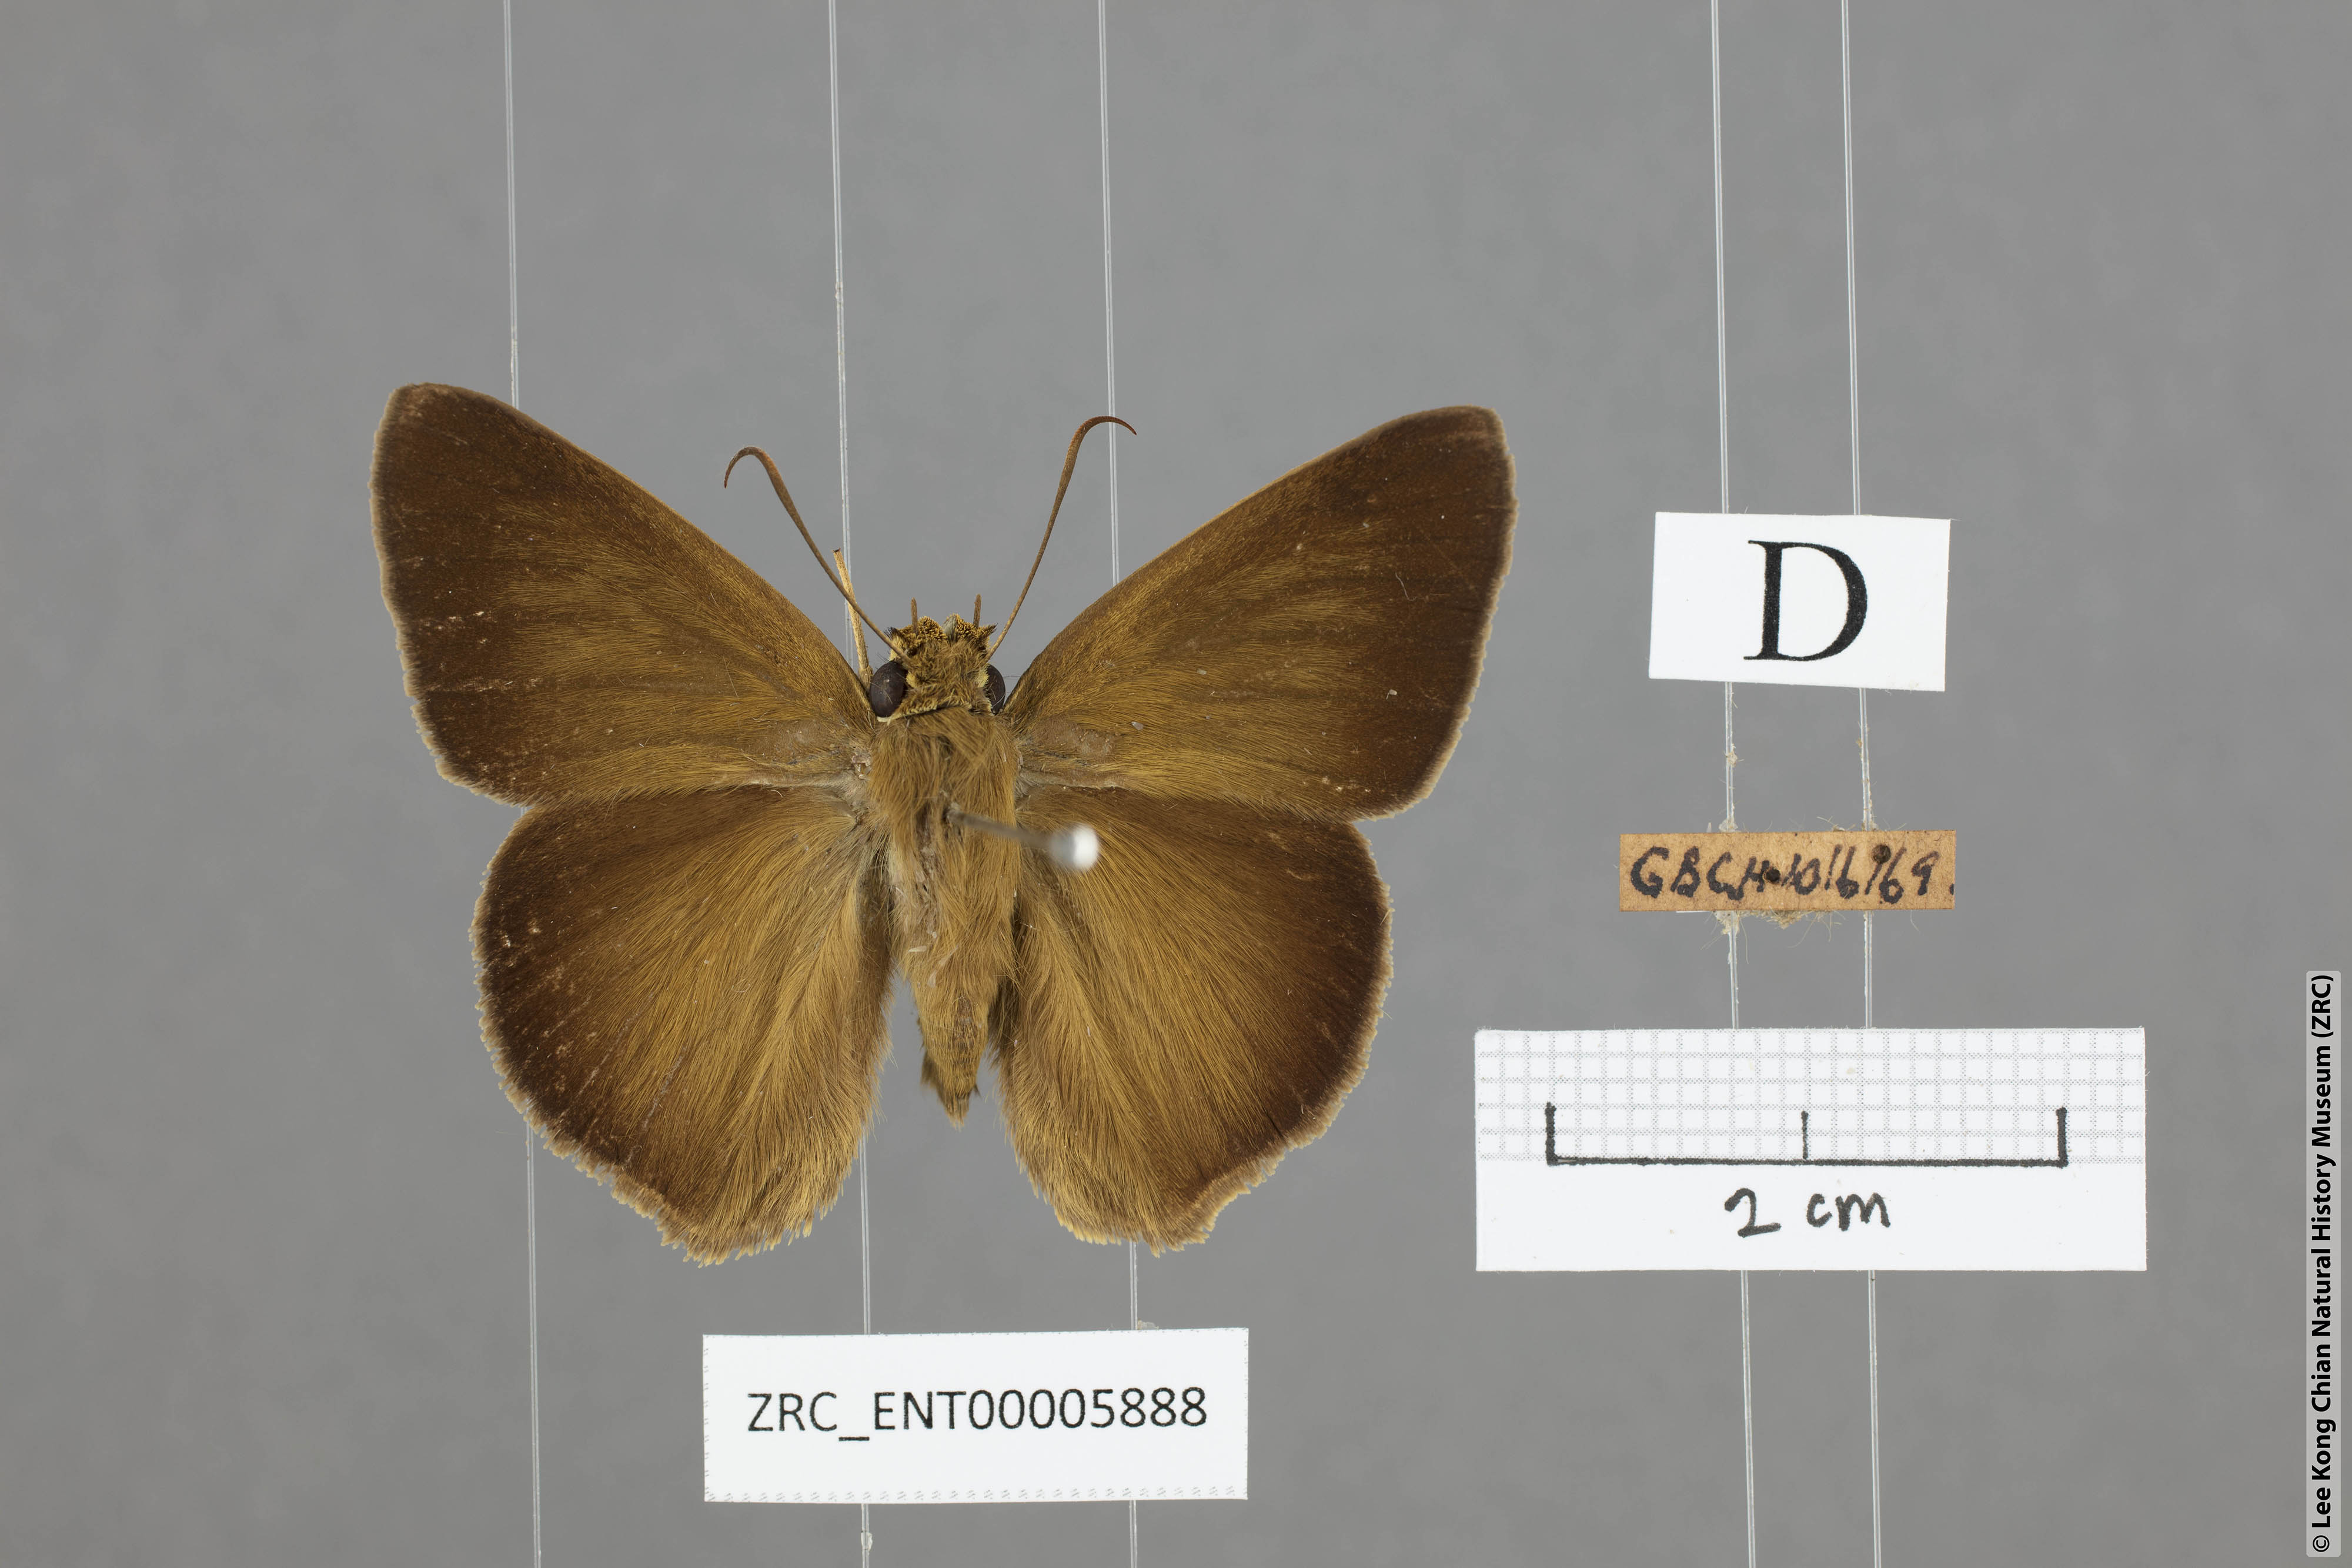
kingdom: Animalia
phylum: Arthropoda
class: Insecta
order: Lepidoptera
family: Hesperiidae
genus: Hasora
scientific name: Hasora myra
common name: Pale-tailed awl
